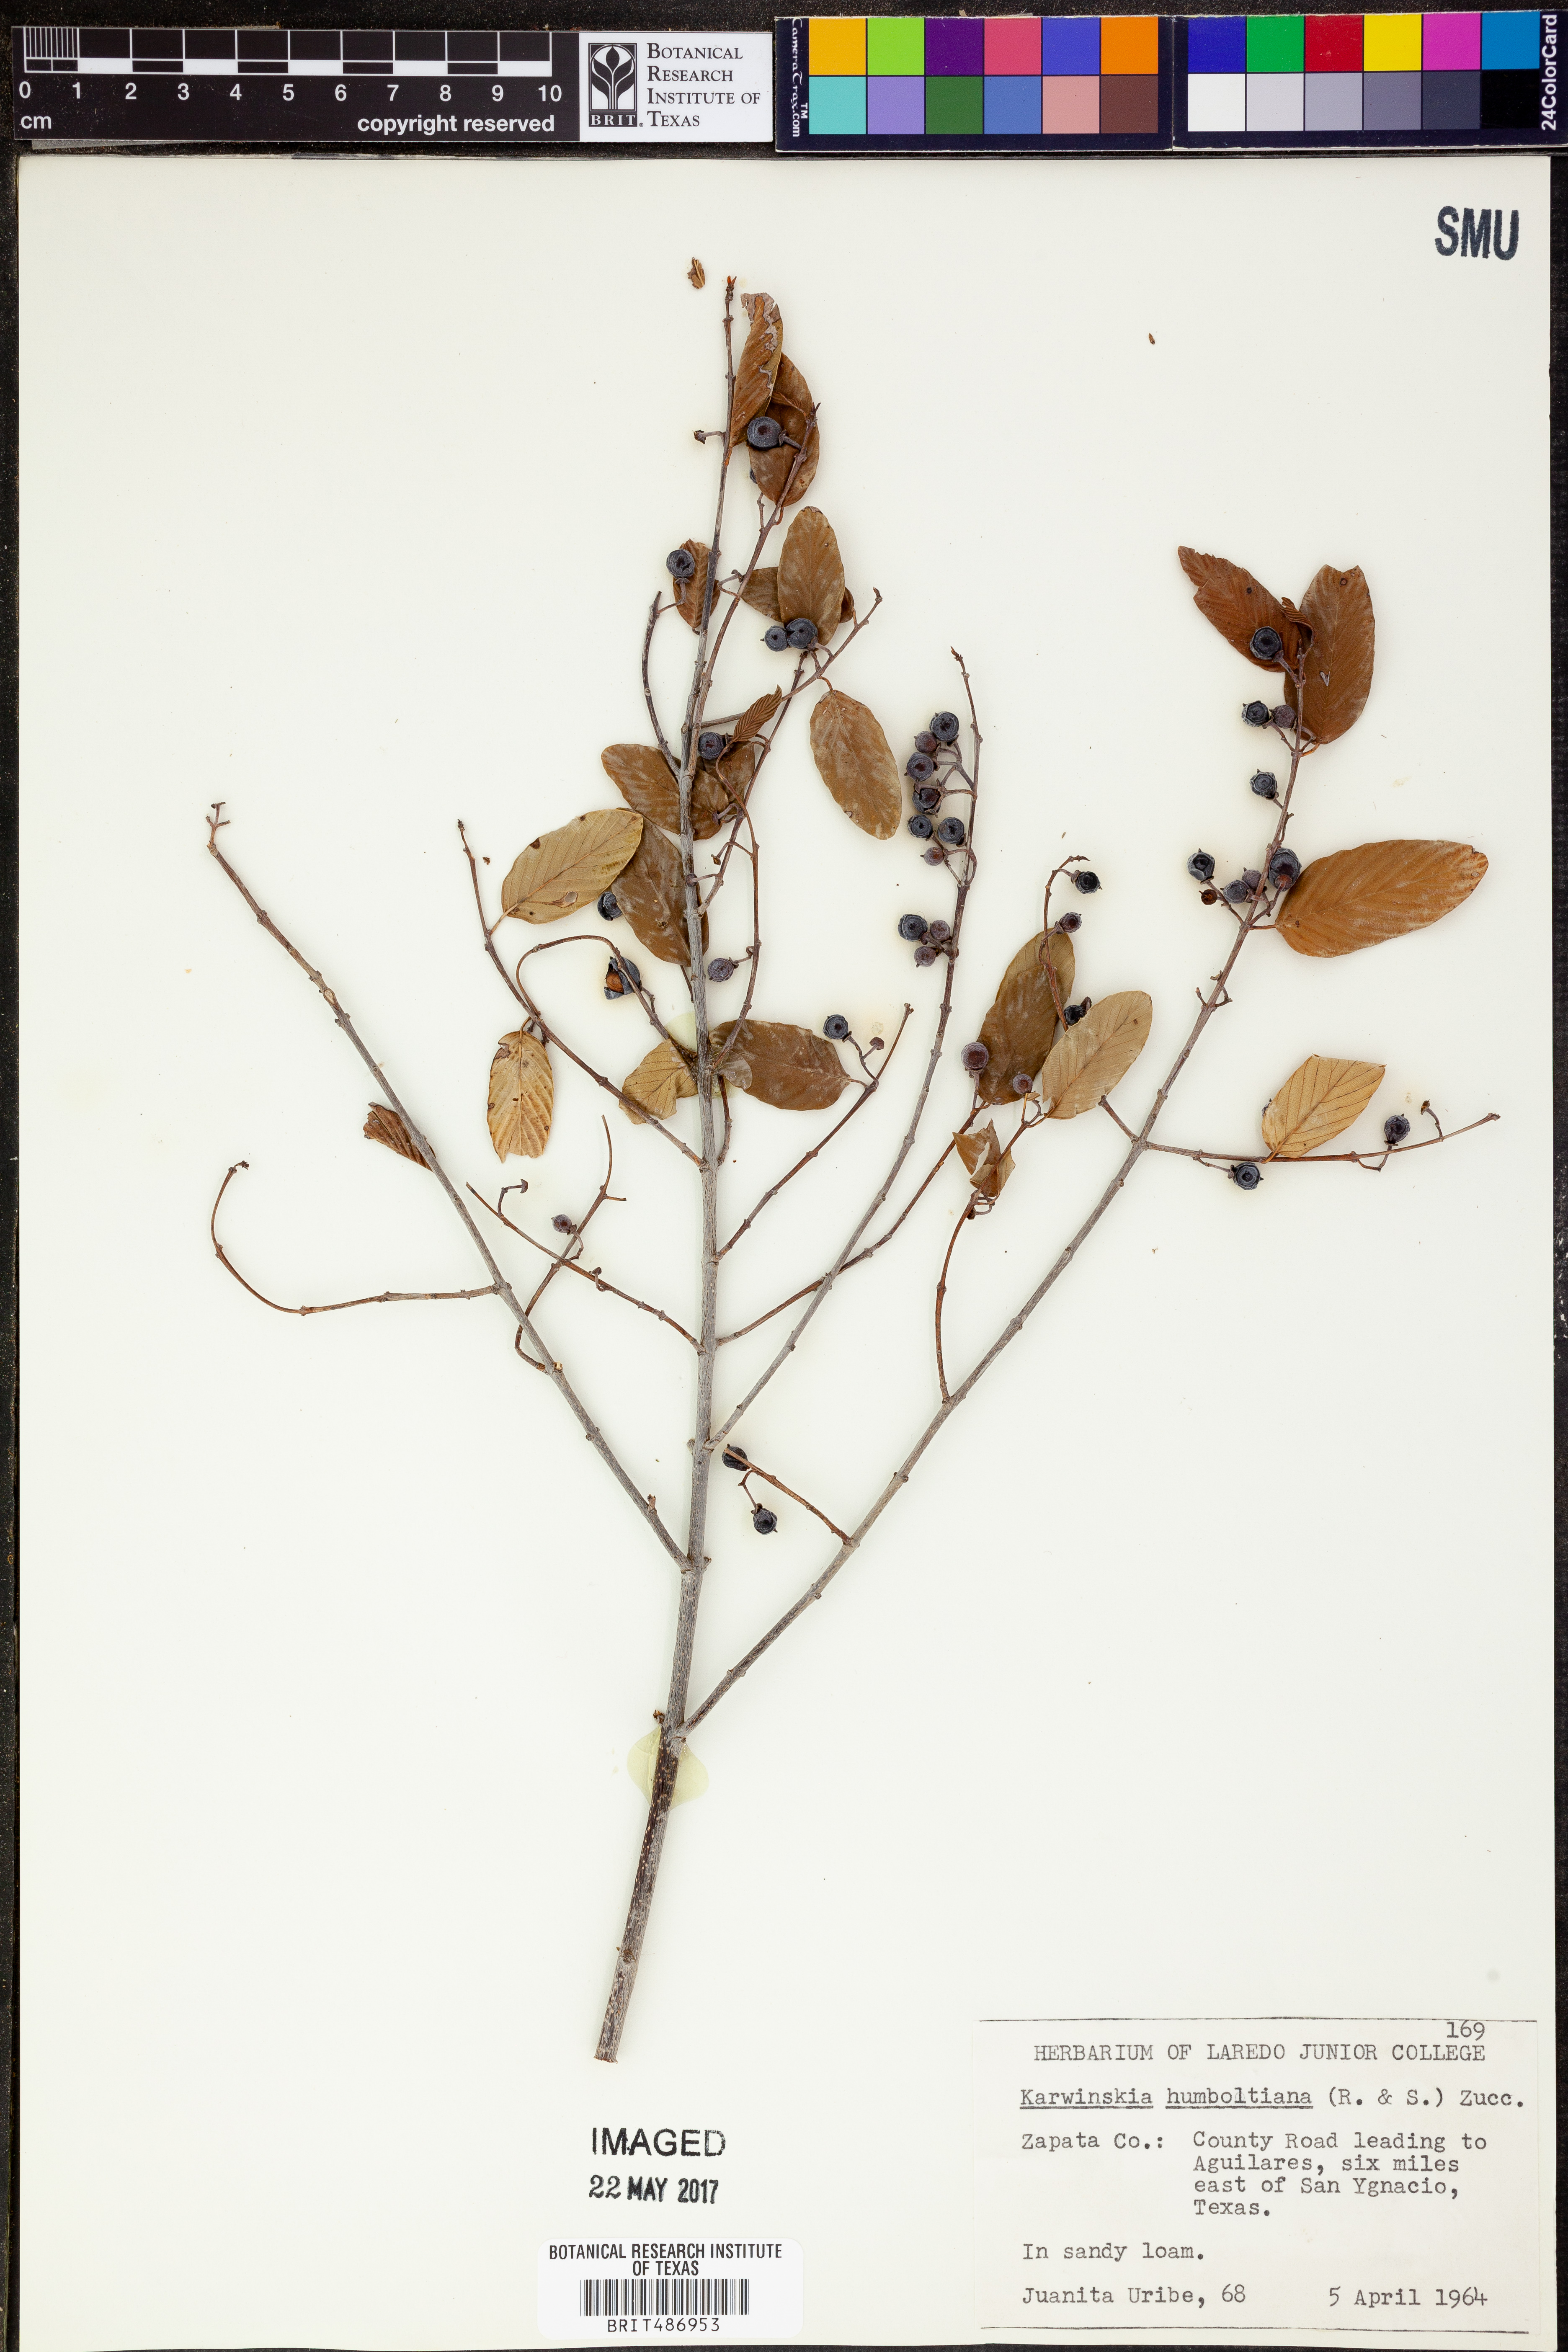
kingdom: Plantae
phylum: Tracheophyta
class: Magnoliopsida
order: Rosales
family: Rhamnaceae
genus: Karwinskia
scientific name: Karwinskia humboldtiana
